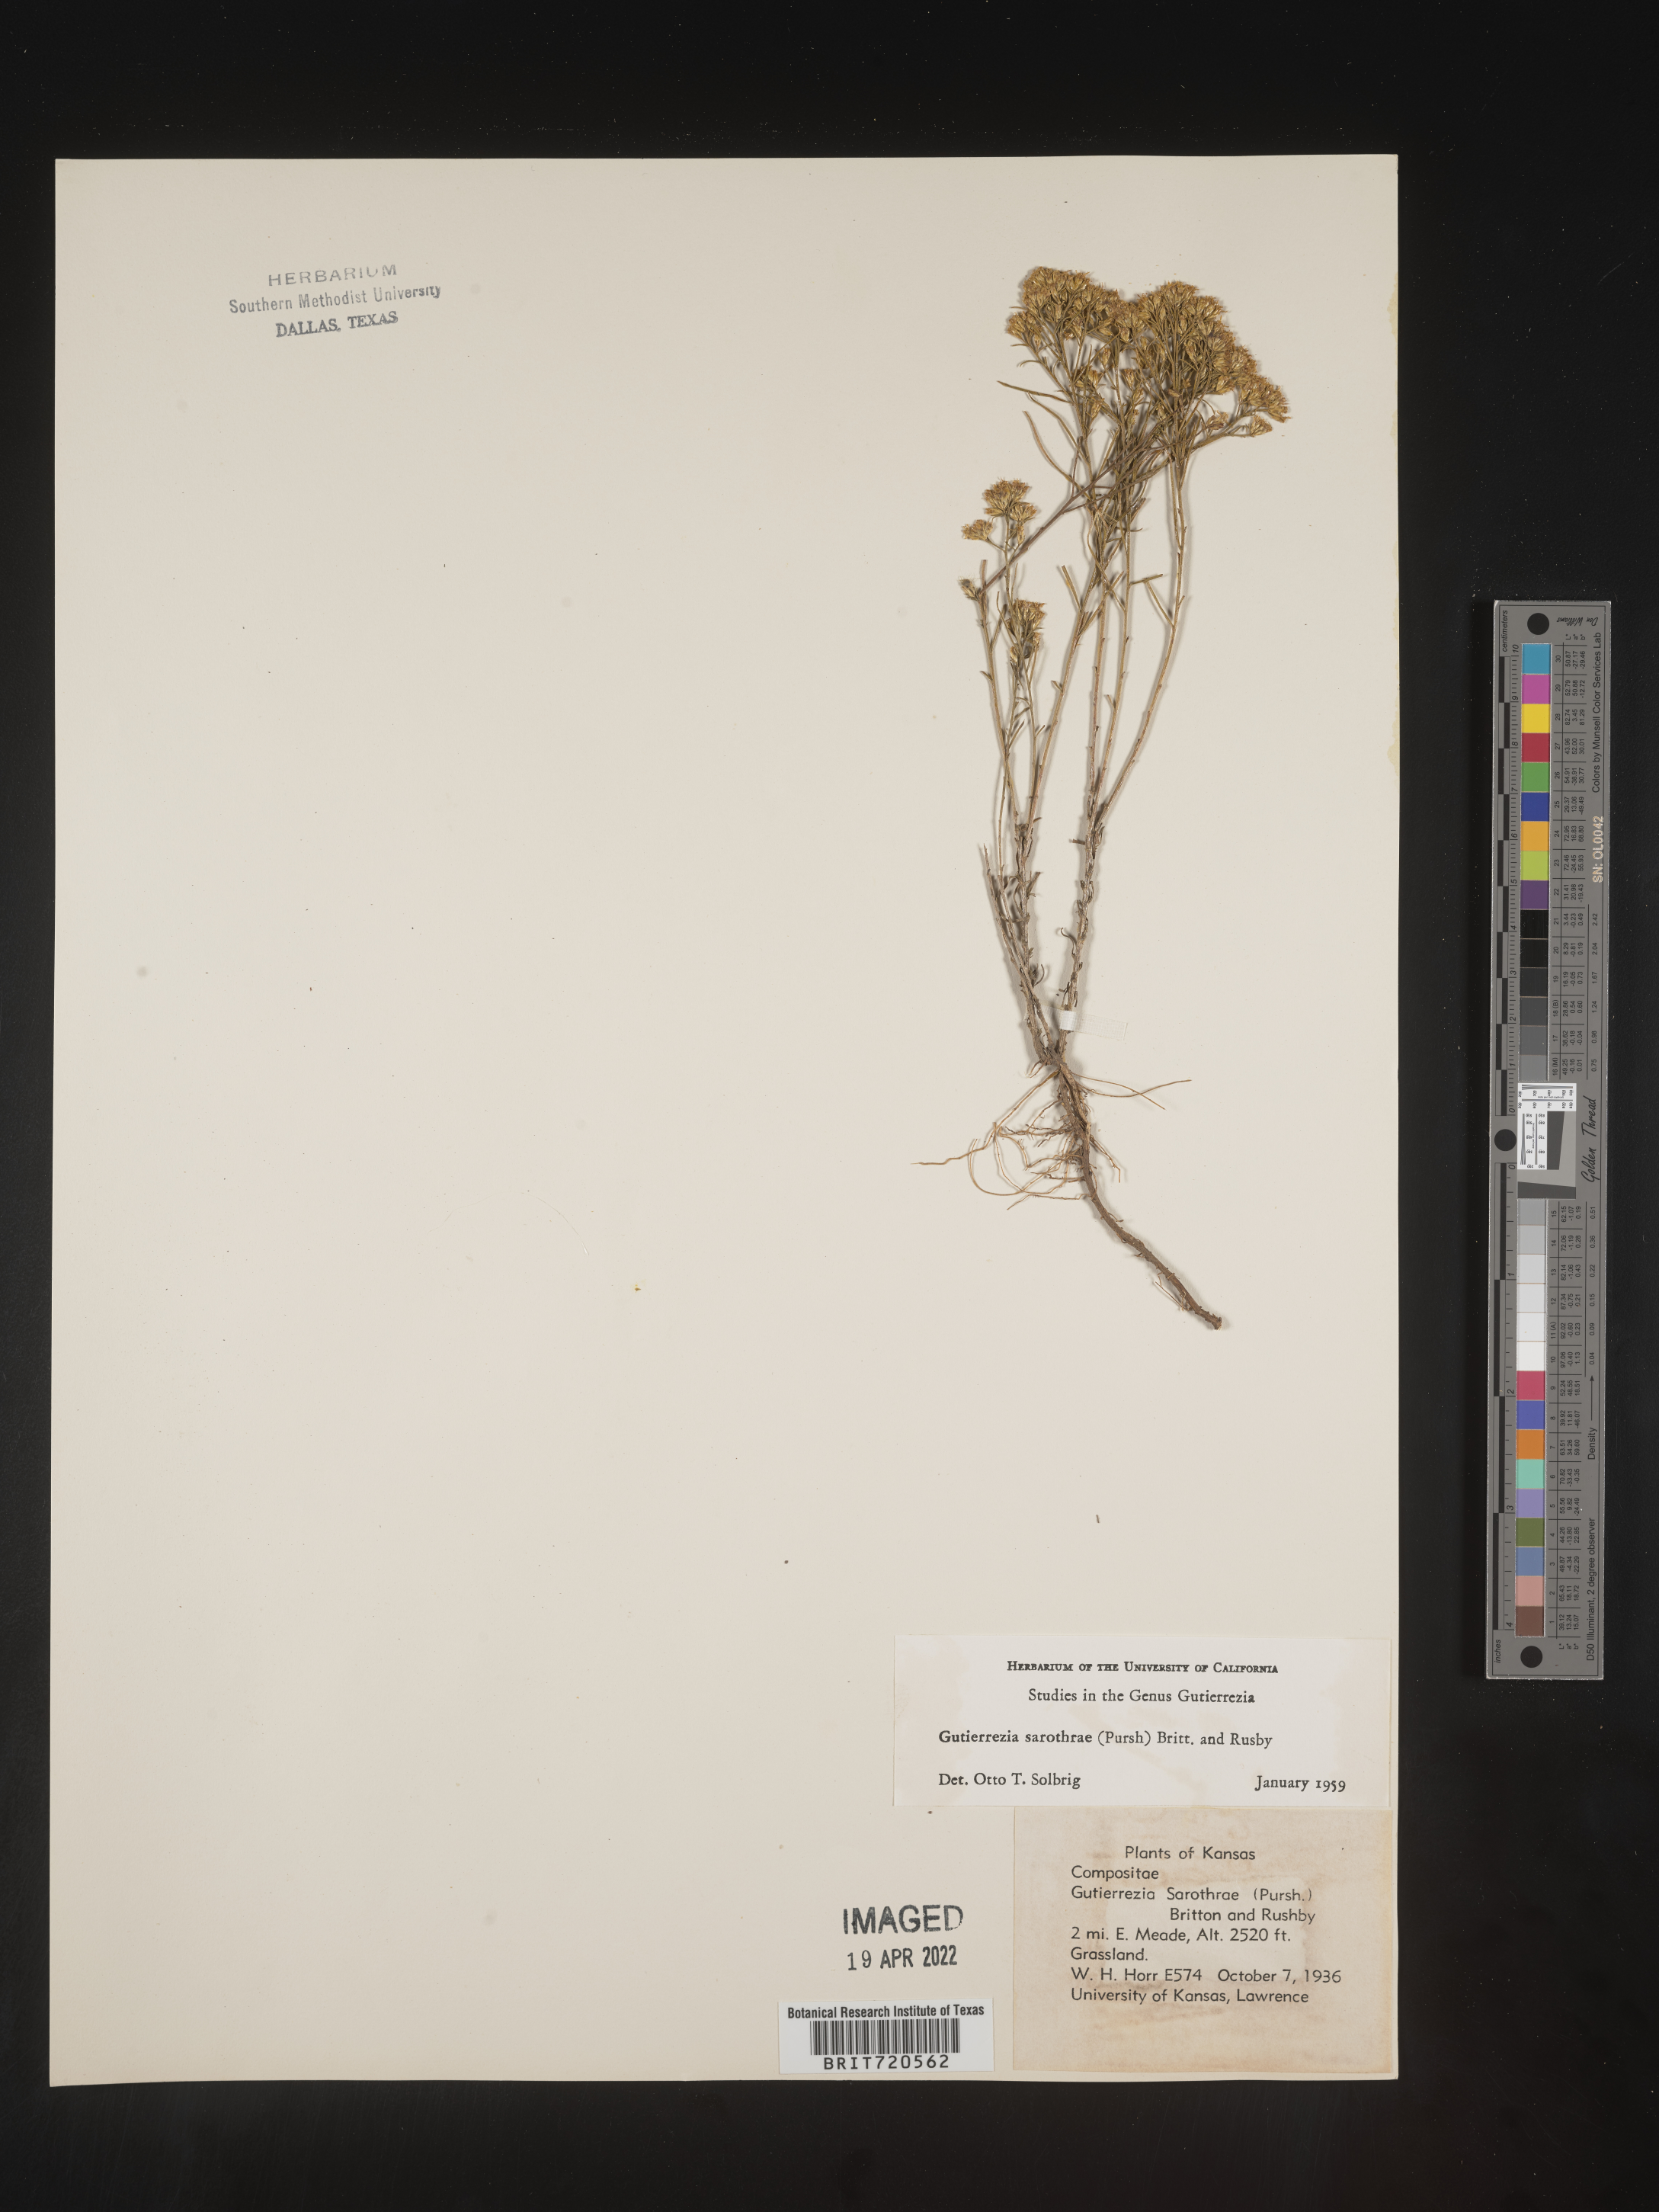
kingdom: Plantae
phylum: Tracheophyta
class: Magnoliopsida
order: Asterales
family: Asteraceae
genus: Gutierrezia
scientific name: Gutierrezia sarothrae
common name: Broom snakeweed
